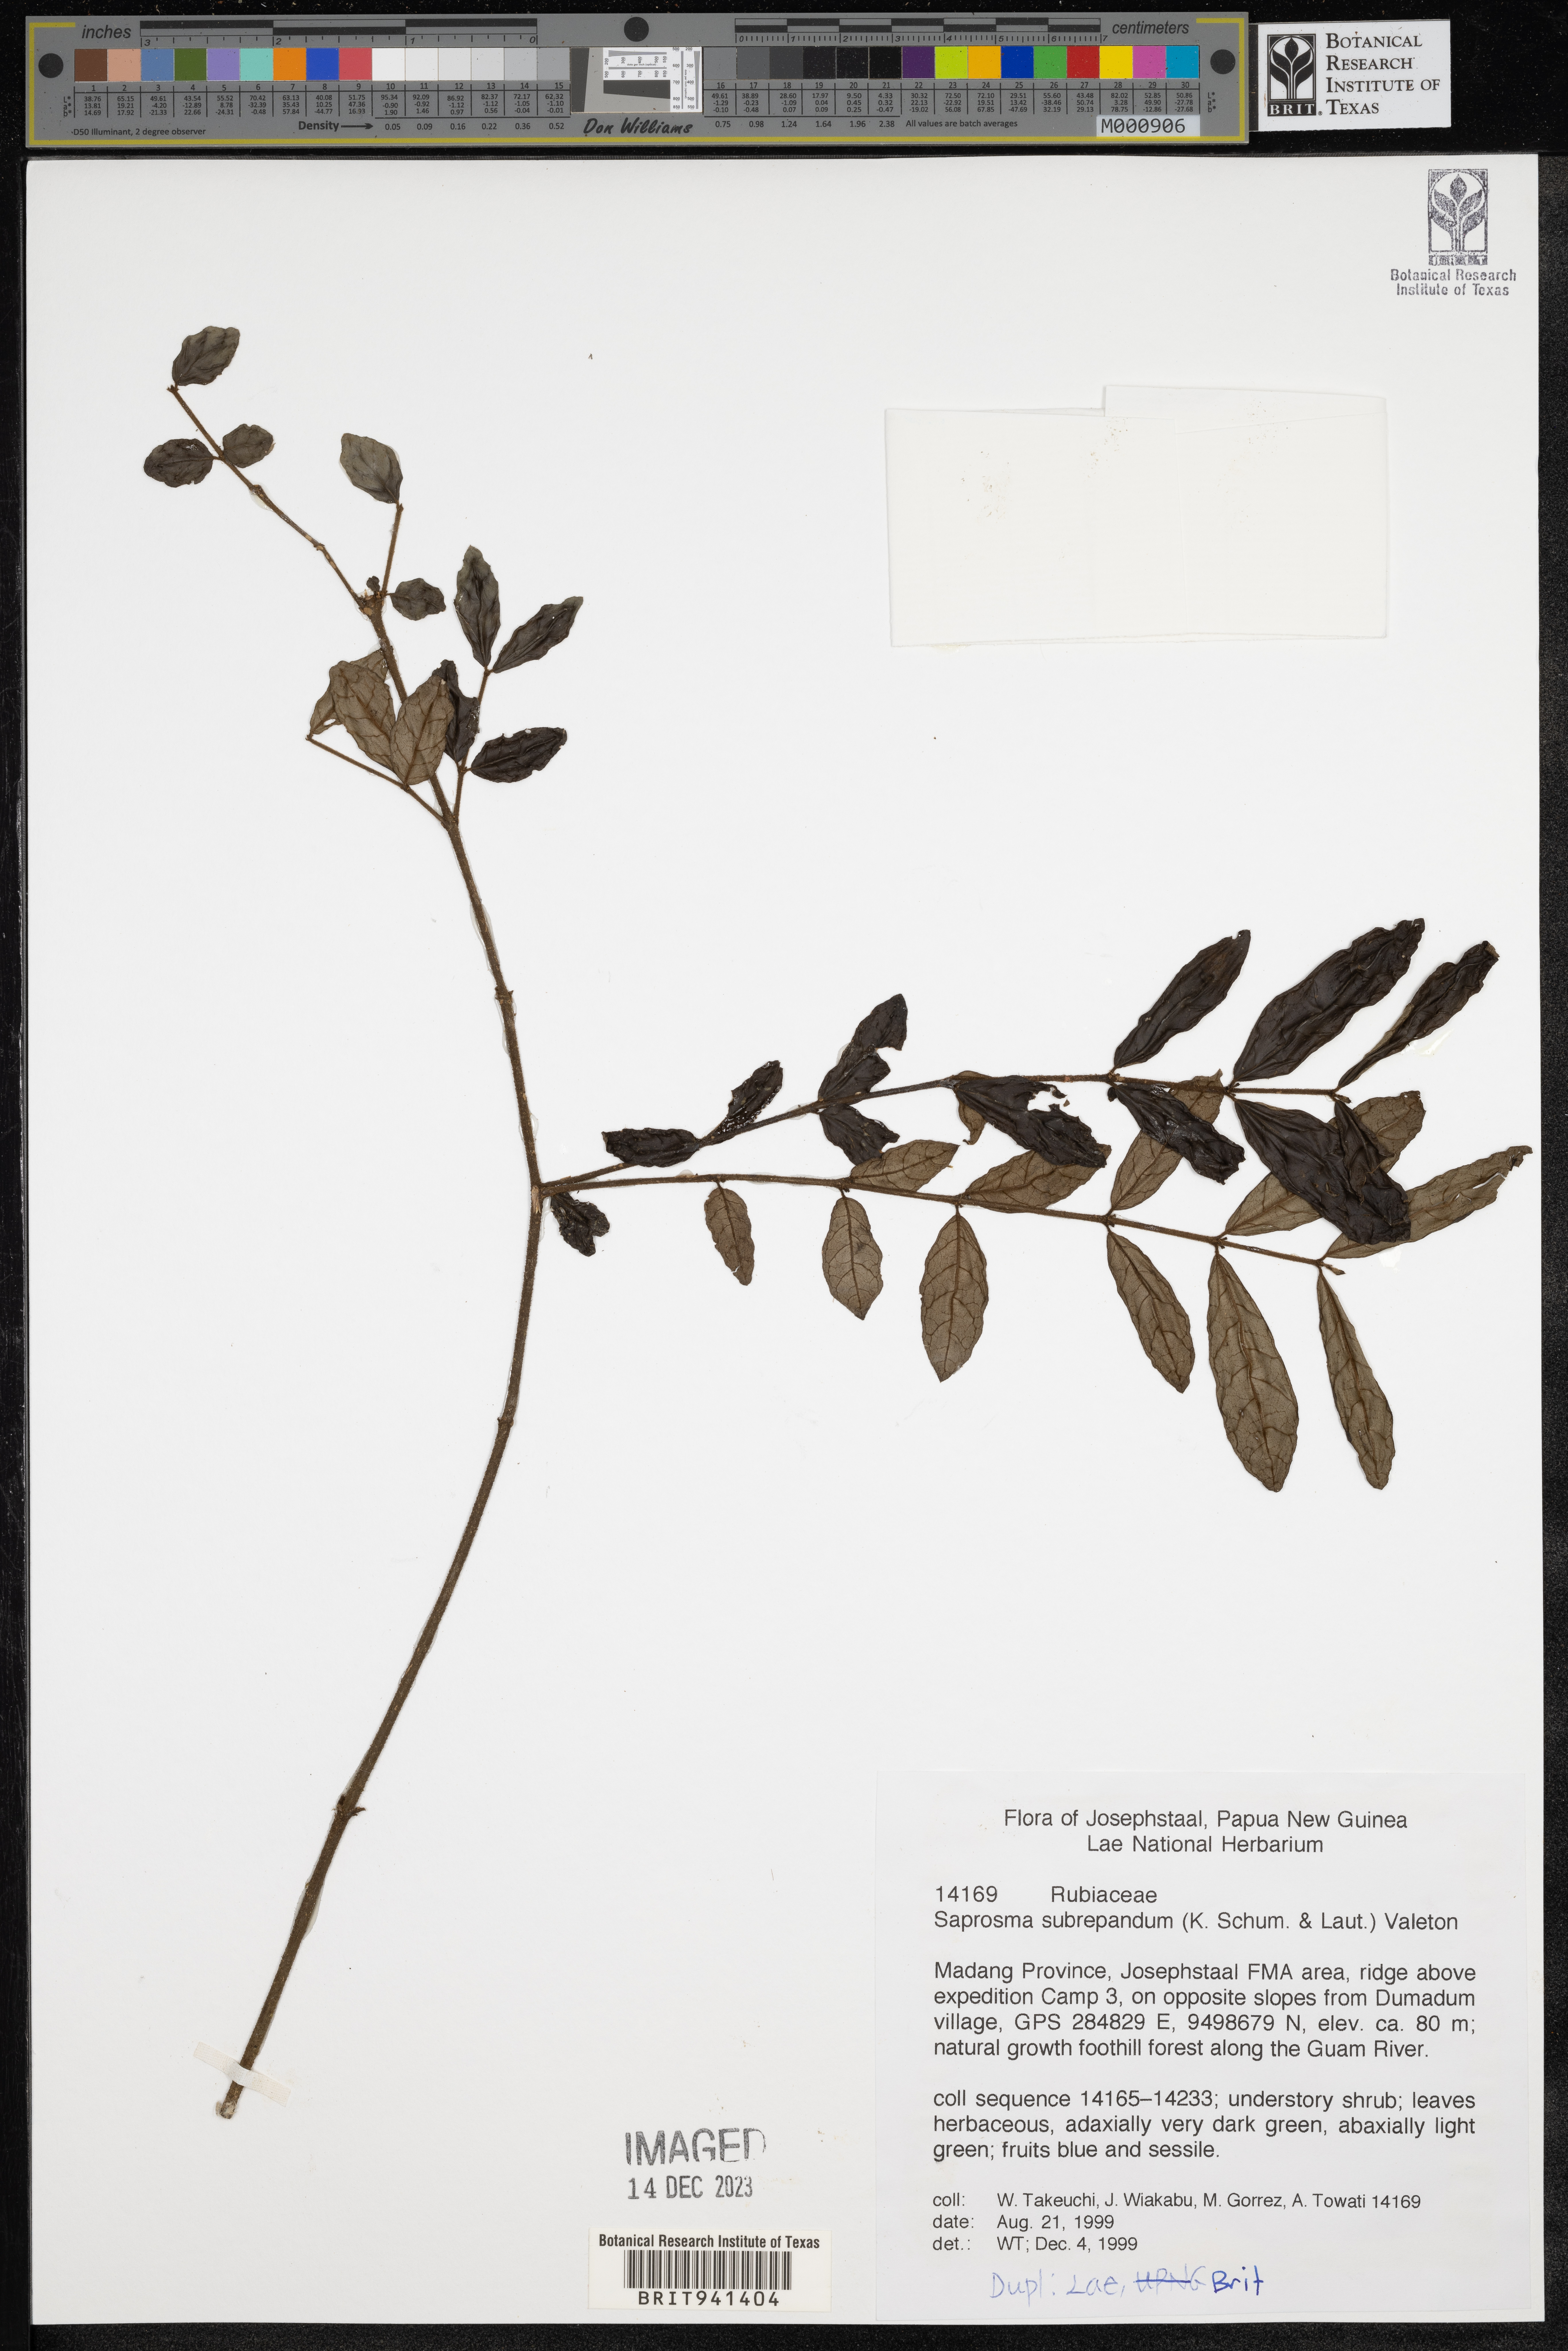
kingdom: Plantae
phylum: Tracheophyta
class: Magnoliopsida
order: Gentianales
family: Rubiaceae
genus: Saprosma
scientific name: Saprosma
